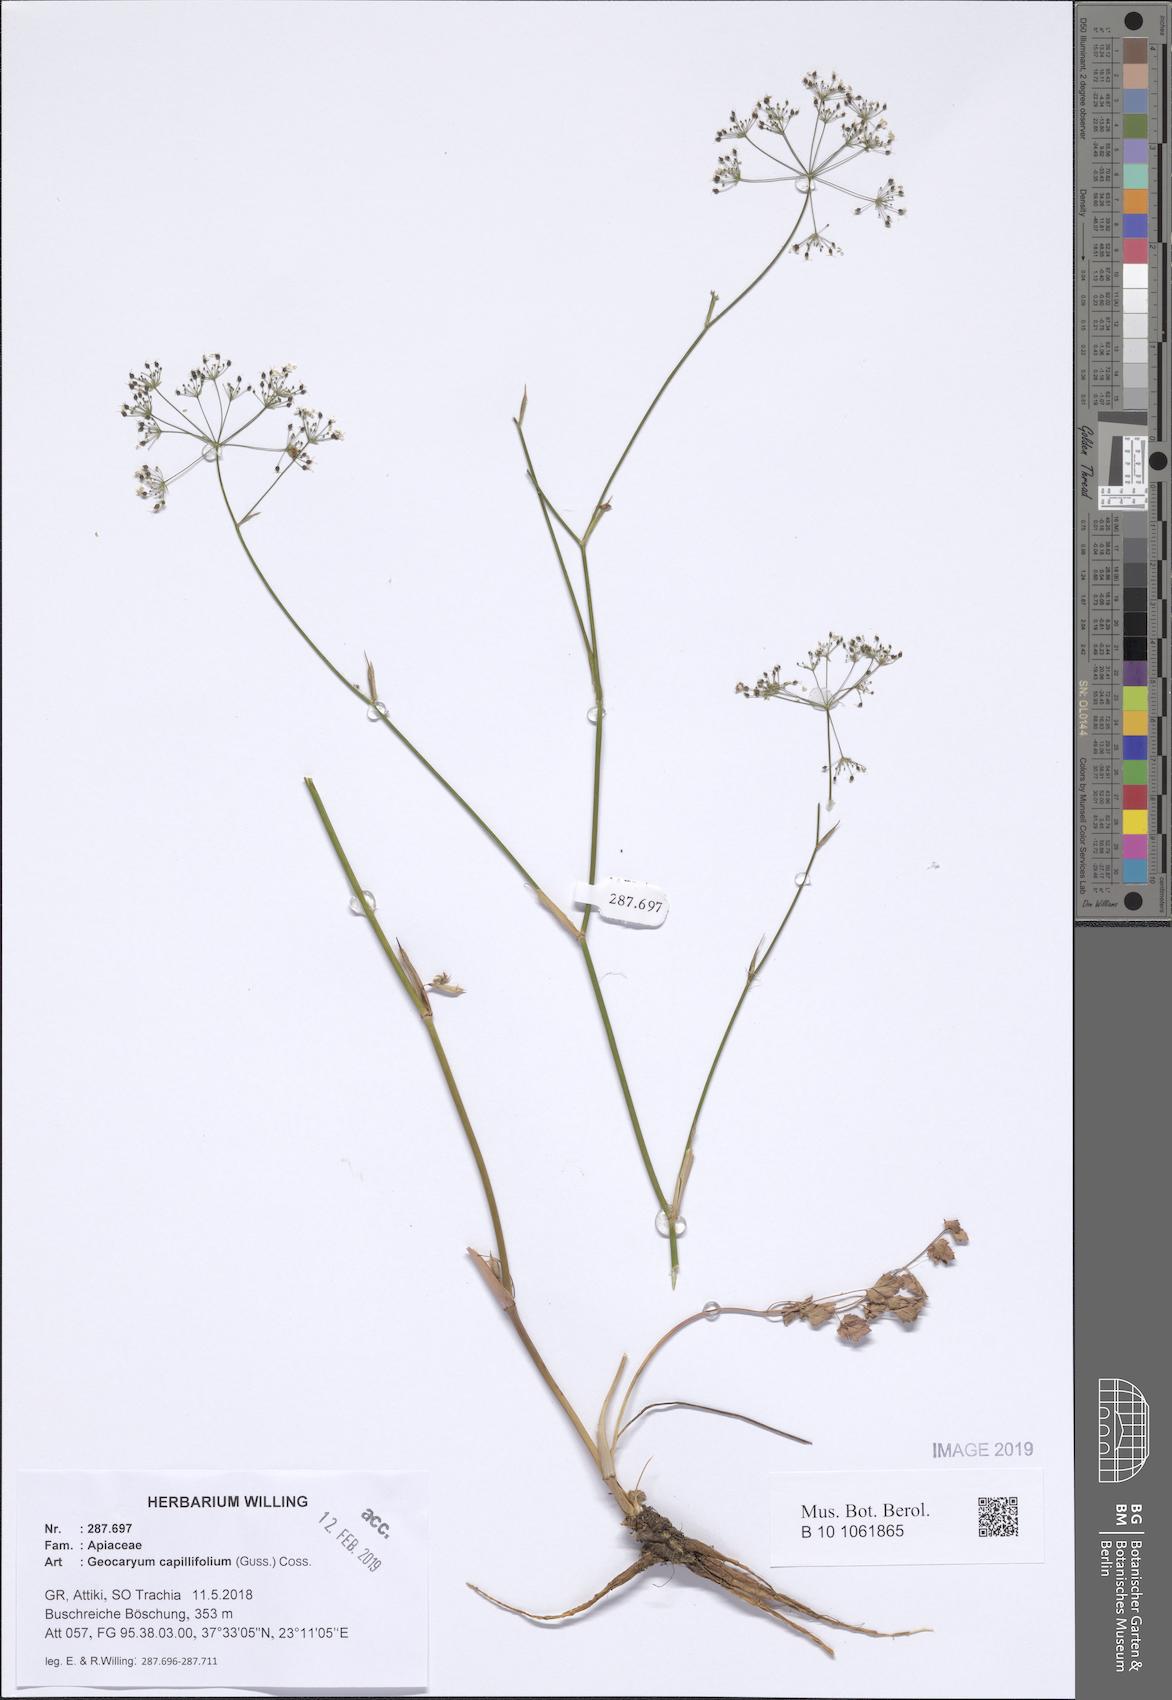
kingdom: Plantae
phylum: Tracheophyta
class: Magnoliopsida
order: Apiales
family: Apiaceae
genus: Geocaryum
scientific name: Geocaryum capillifolium
